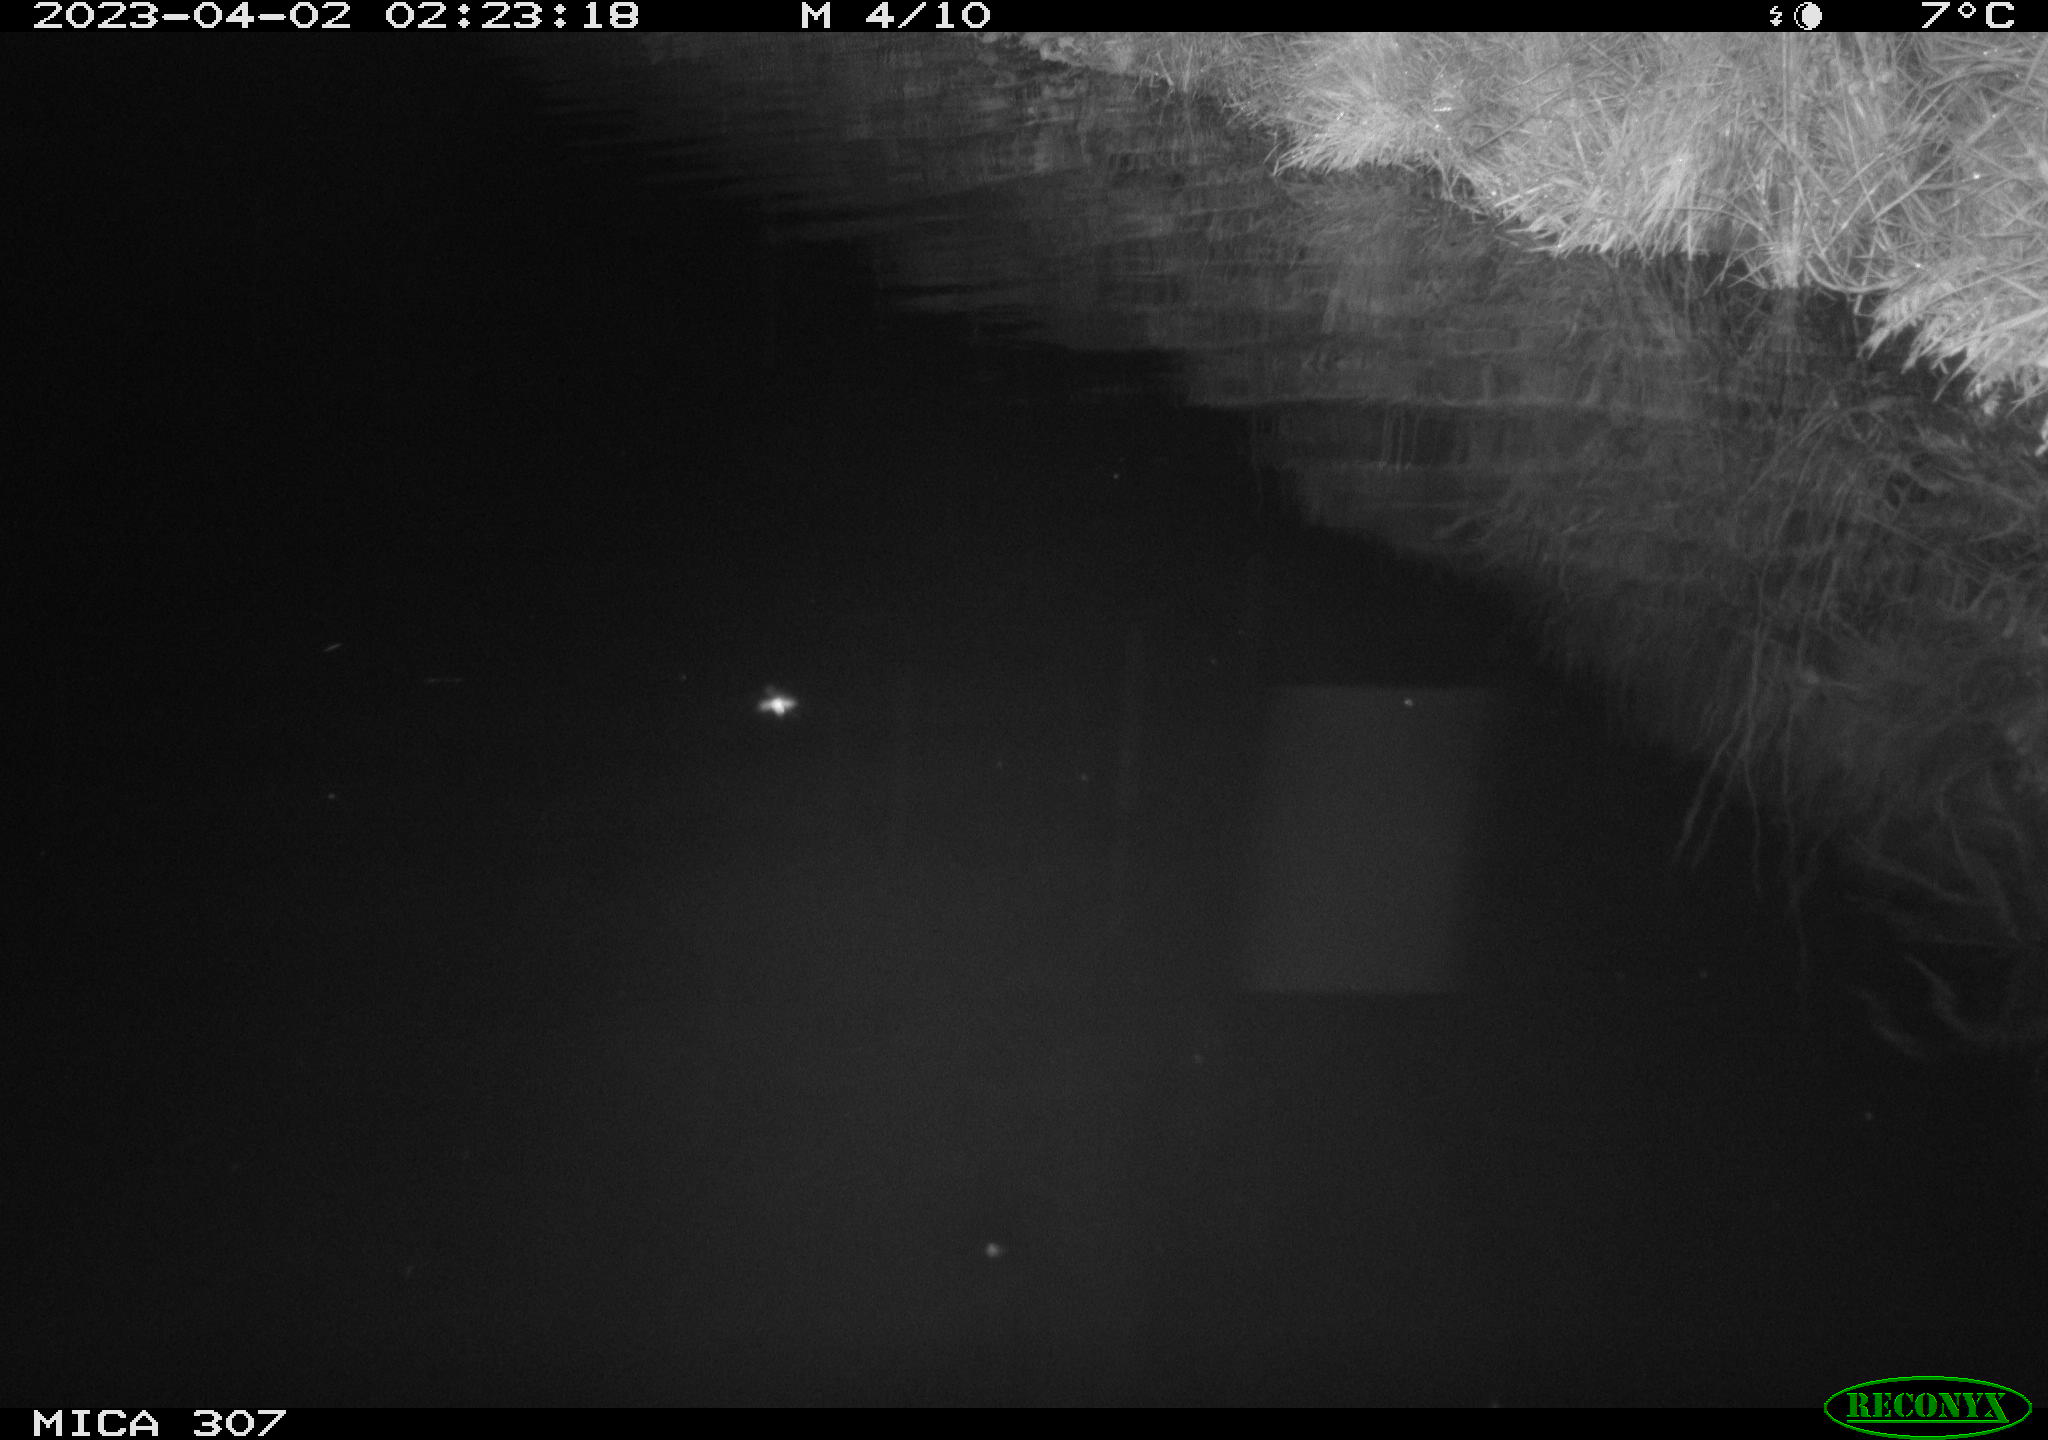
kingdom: Animalia
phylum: Chordata
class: Aves
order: Anseriformes
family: Anatidae
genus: Anas
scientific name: Anas
